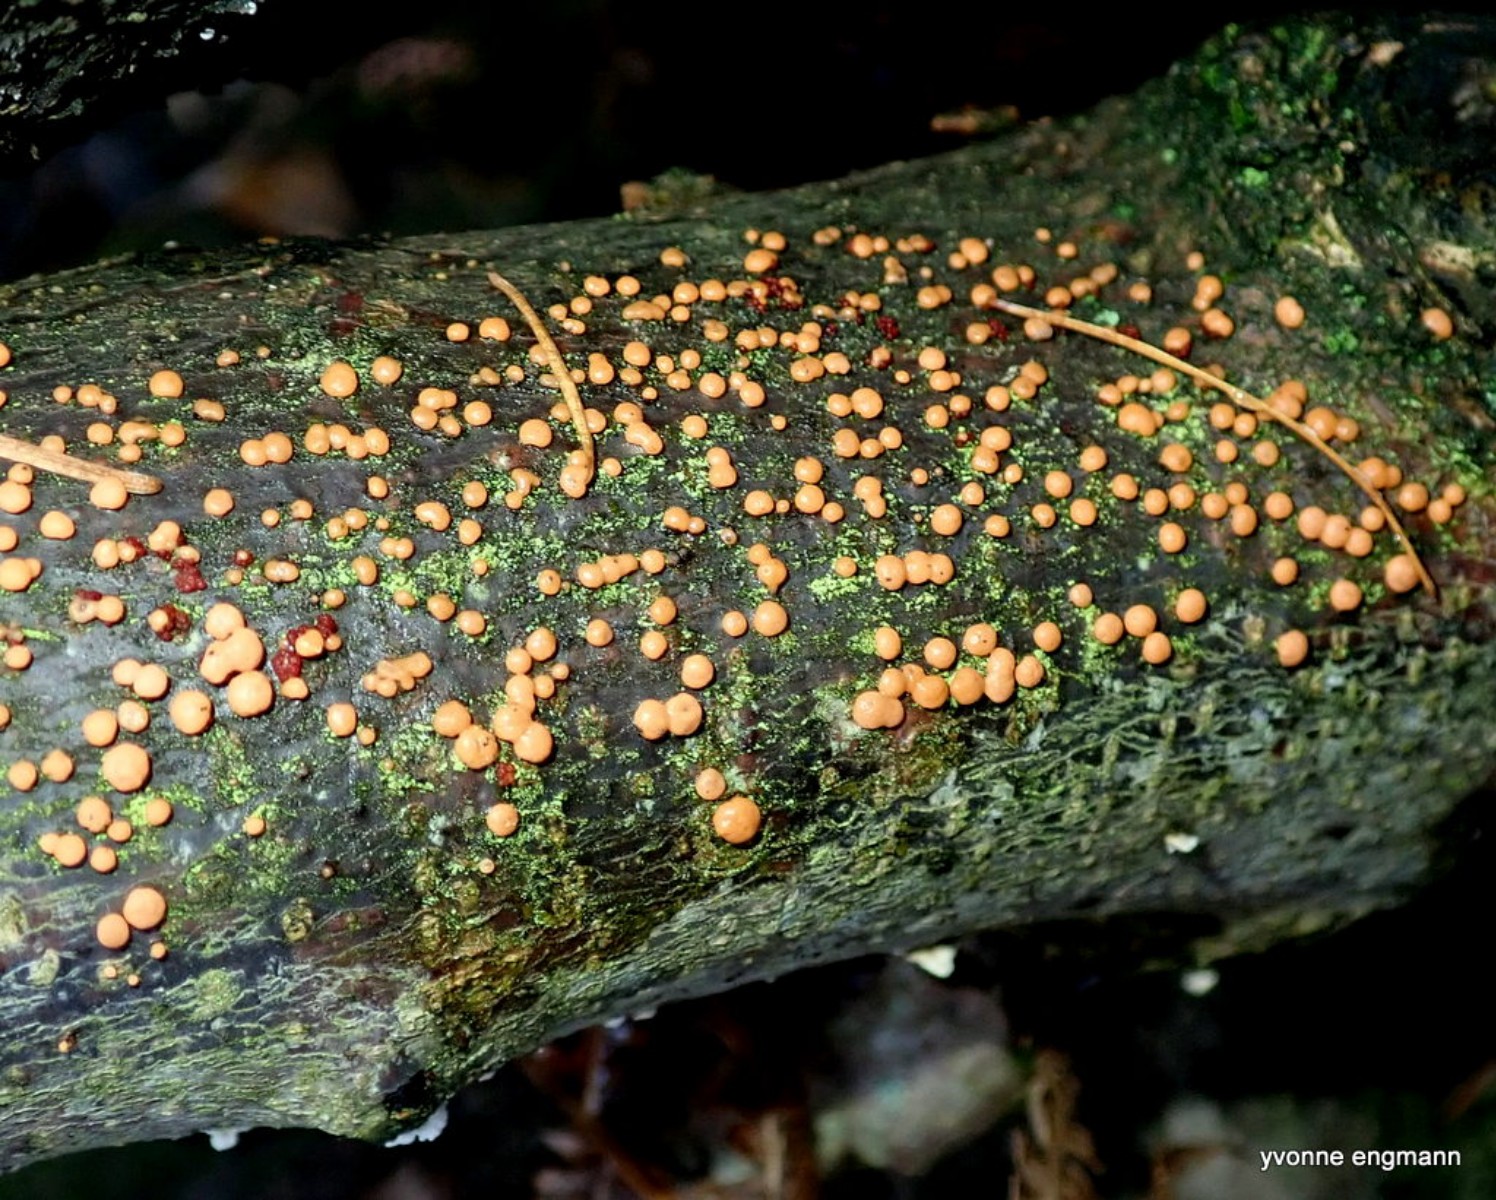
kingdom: Fungi
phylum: Ascomycota
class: Sordariomycetes
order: Hypocreales
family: Nectriaceae
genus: Nectria
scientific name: Nectria cinnabarina
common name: almindelig cinnobersvamp
